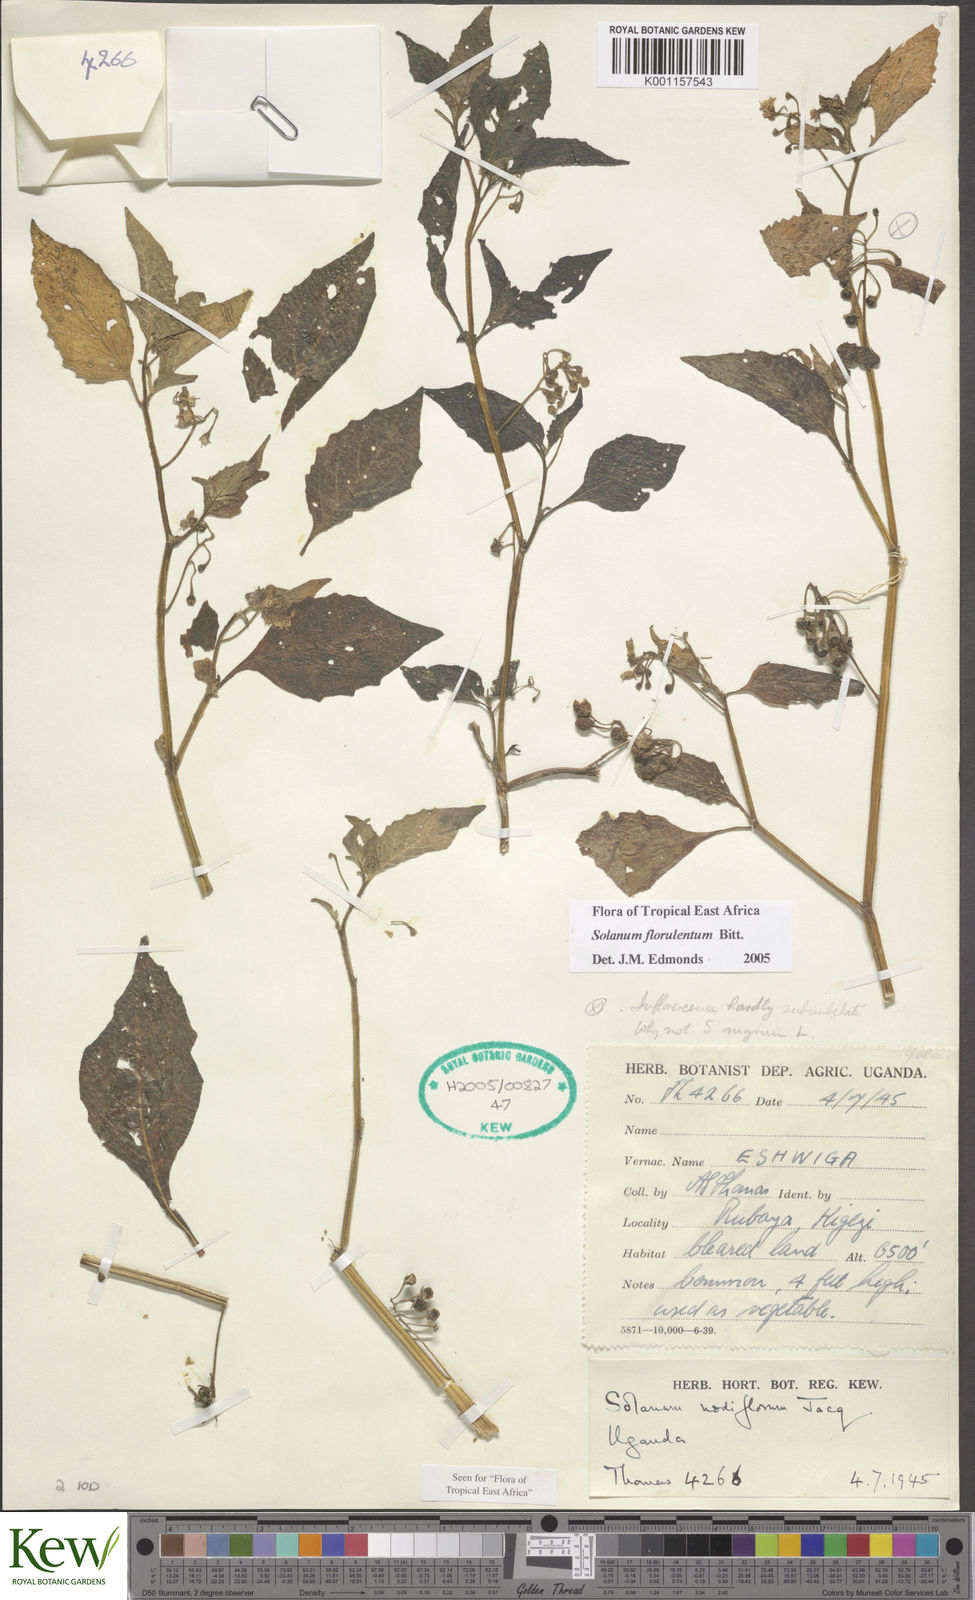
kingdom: Plantae
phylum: Tracheophyta
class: Magnoliopsida
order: Solanales
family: Solanaceae
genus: Solanum
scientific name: Solanum tarderemotum
